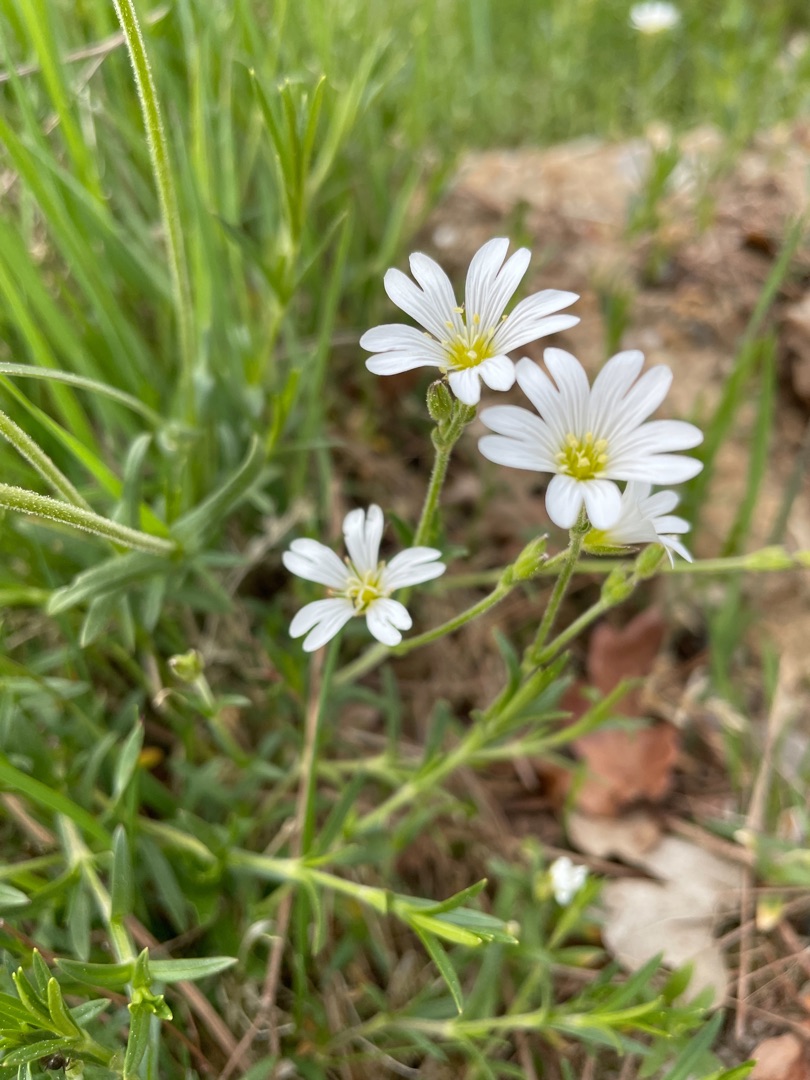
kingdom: Plantae
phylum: Tracheophyta
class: Magnoliopsida
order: Caryophyllales
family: Caryophyllaceae
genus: Cerastium
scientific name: Cerastium arvense
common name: Storblomstret hønsetarm
